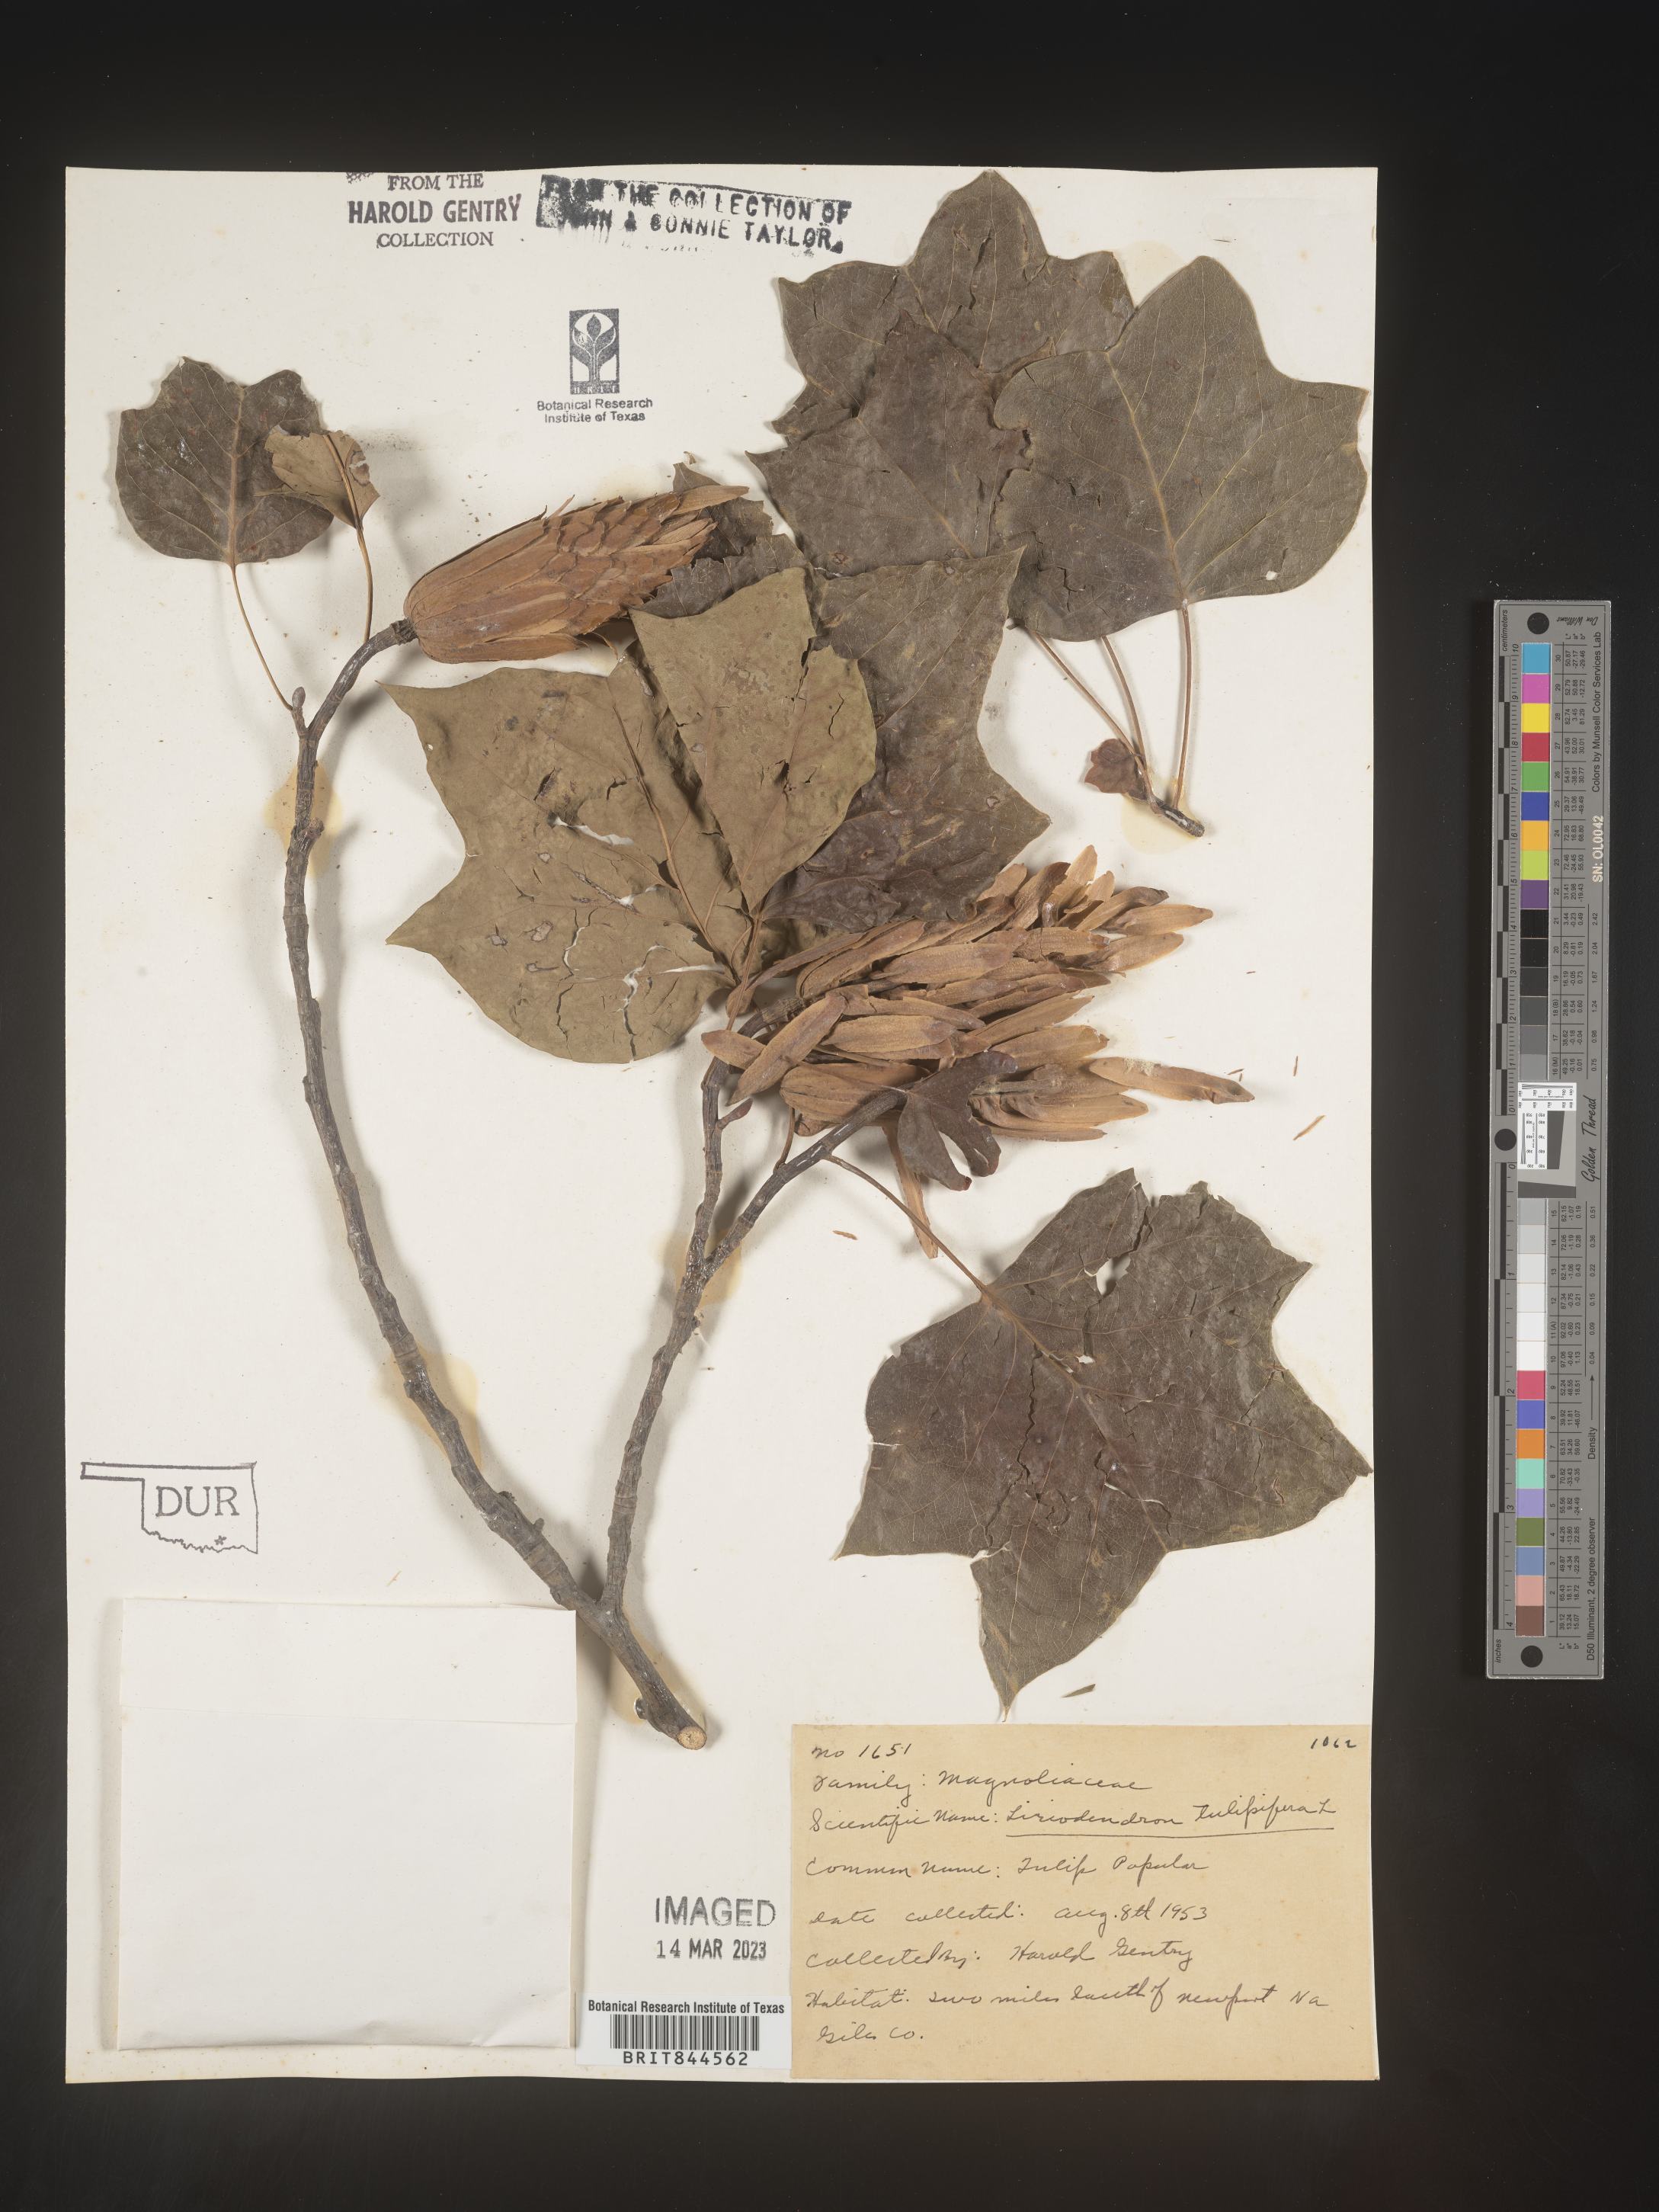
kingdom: Plantae
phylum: Tracheophyta
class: Magnoliopsida
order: Magnoliales
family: Magnoliaceae
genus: Liriodendron
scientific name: Liriodendron tulipifera
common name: Tulip tree
